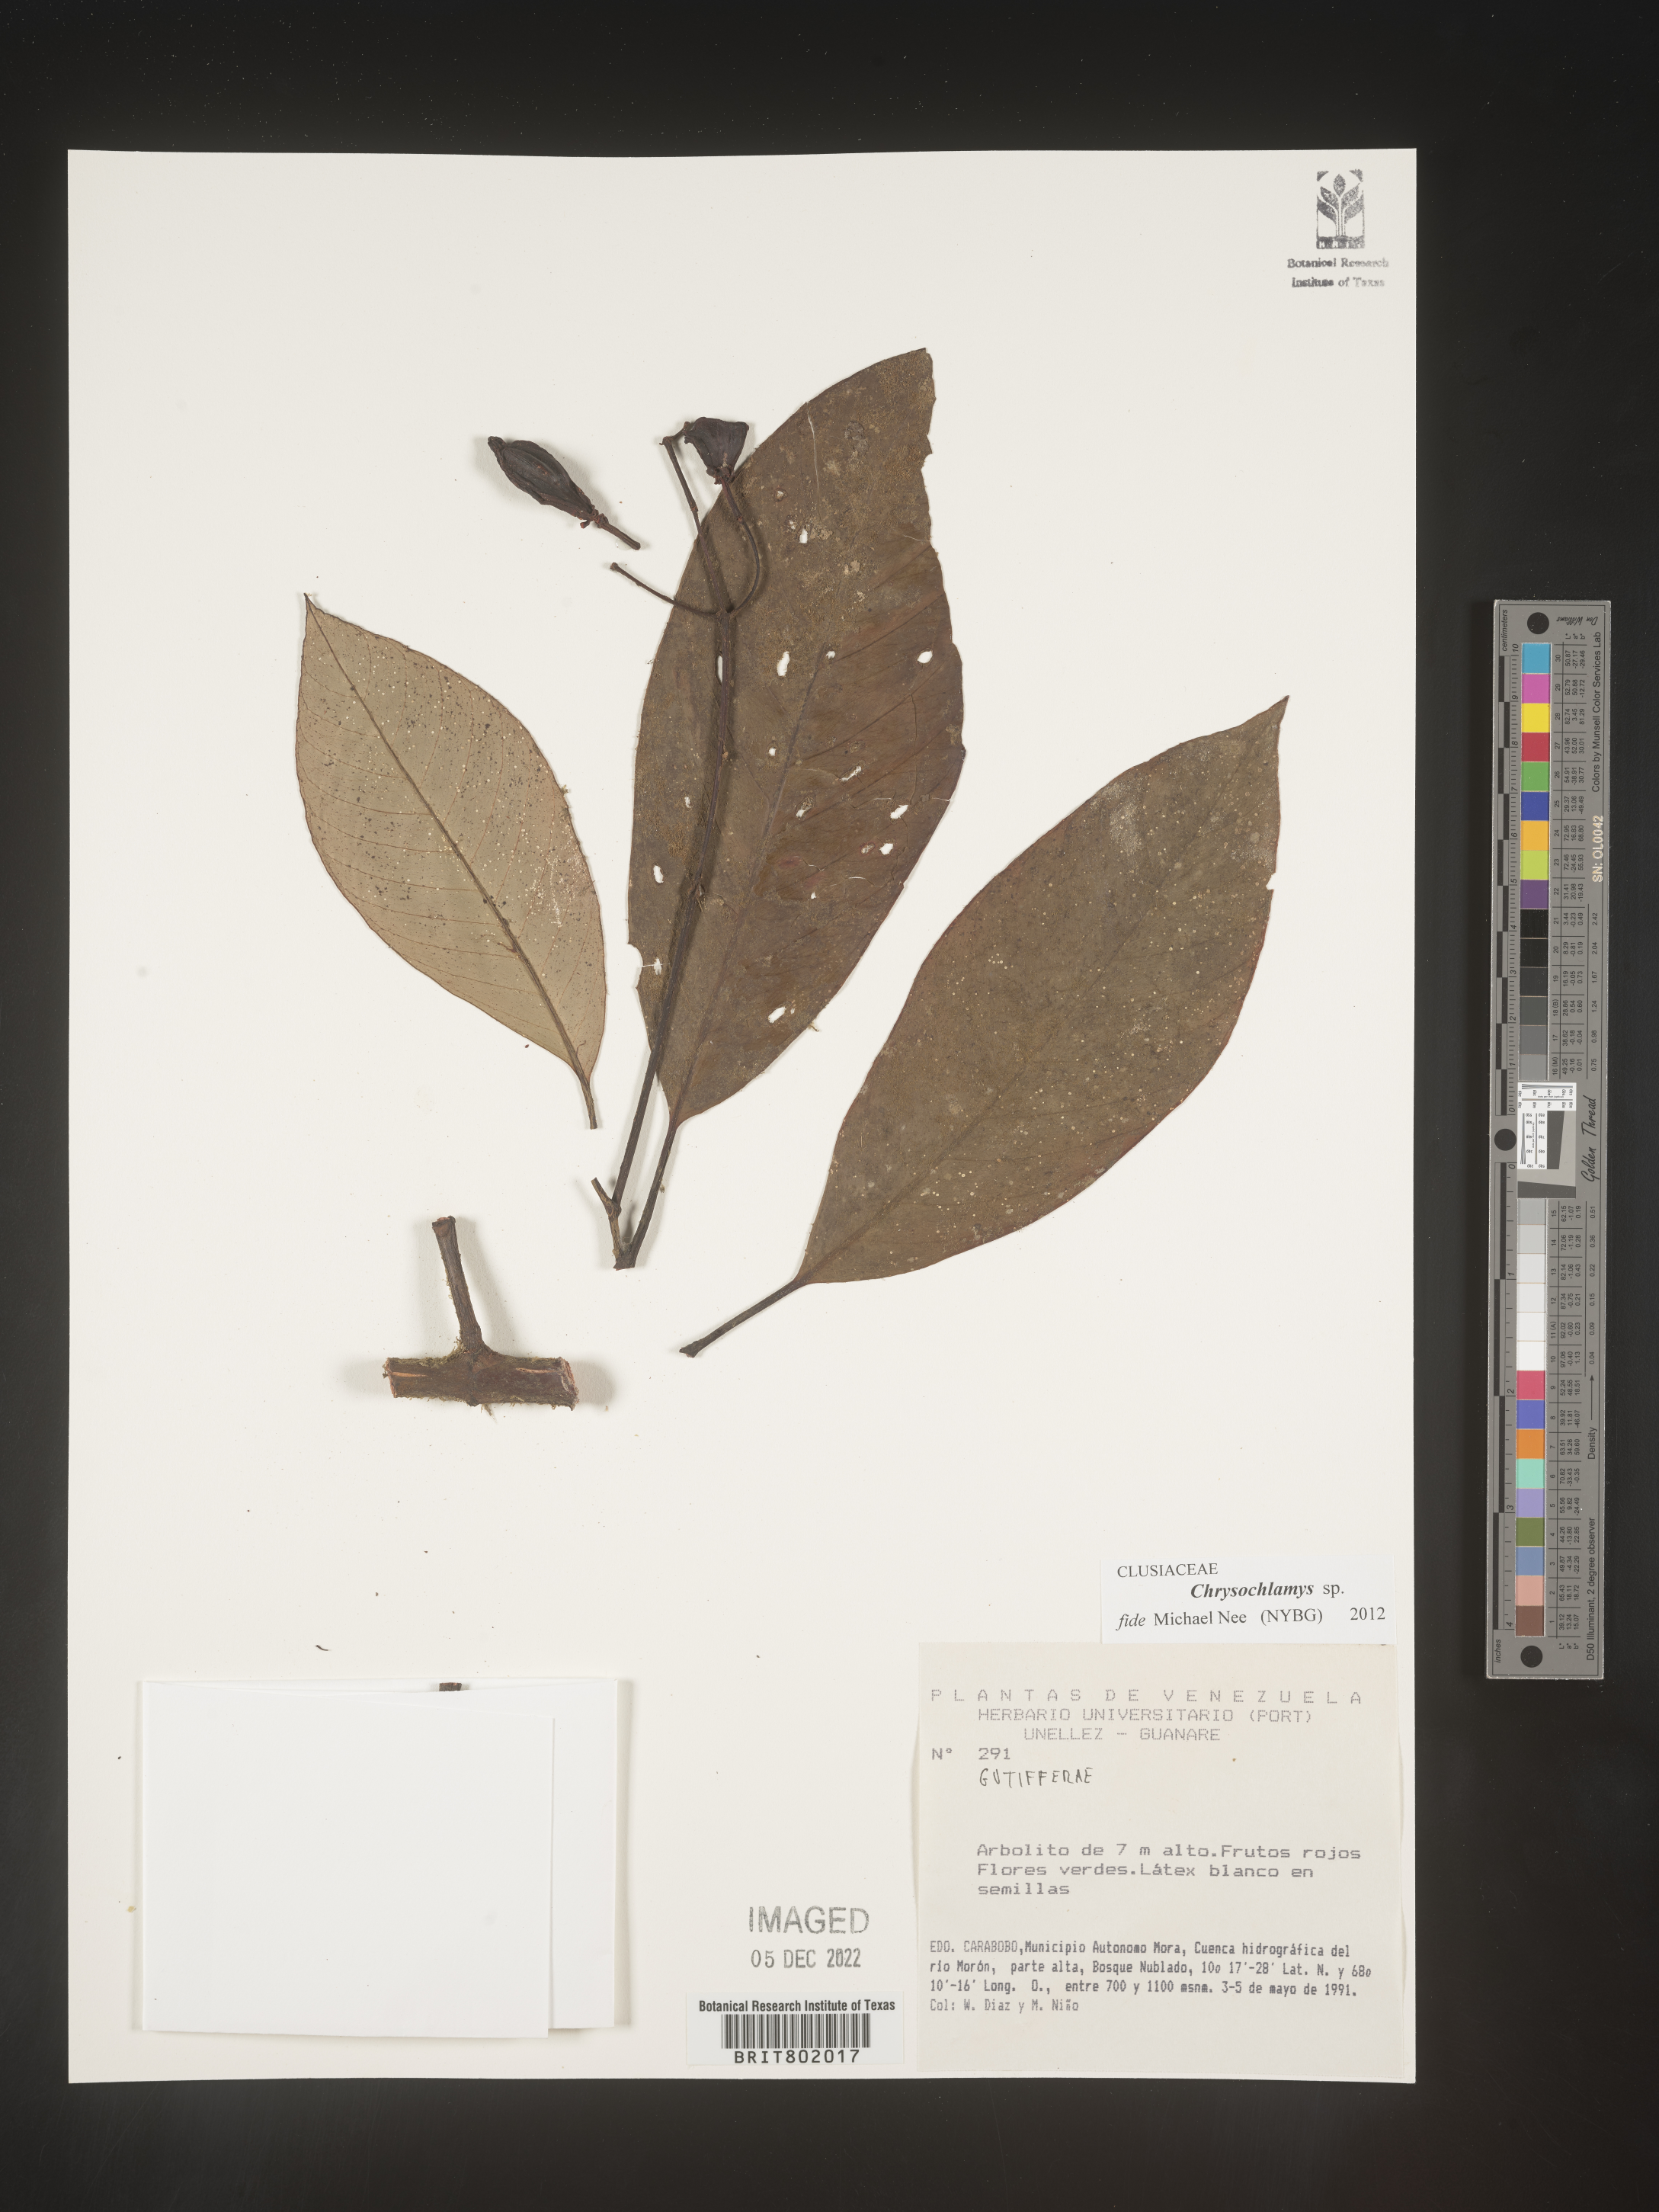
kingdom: Plantae
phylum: Tracheophyta
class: Magnoliopsida
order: Malpighiales
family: Clusiaceae
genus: Chrysochlamys
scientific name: Chrysochlamys
